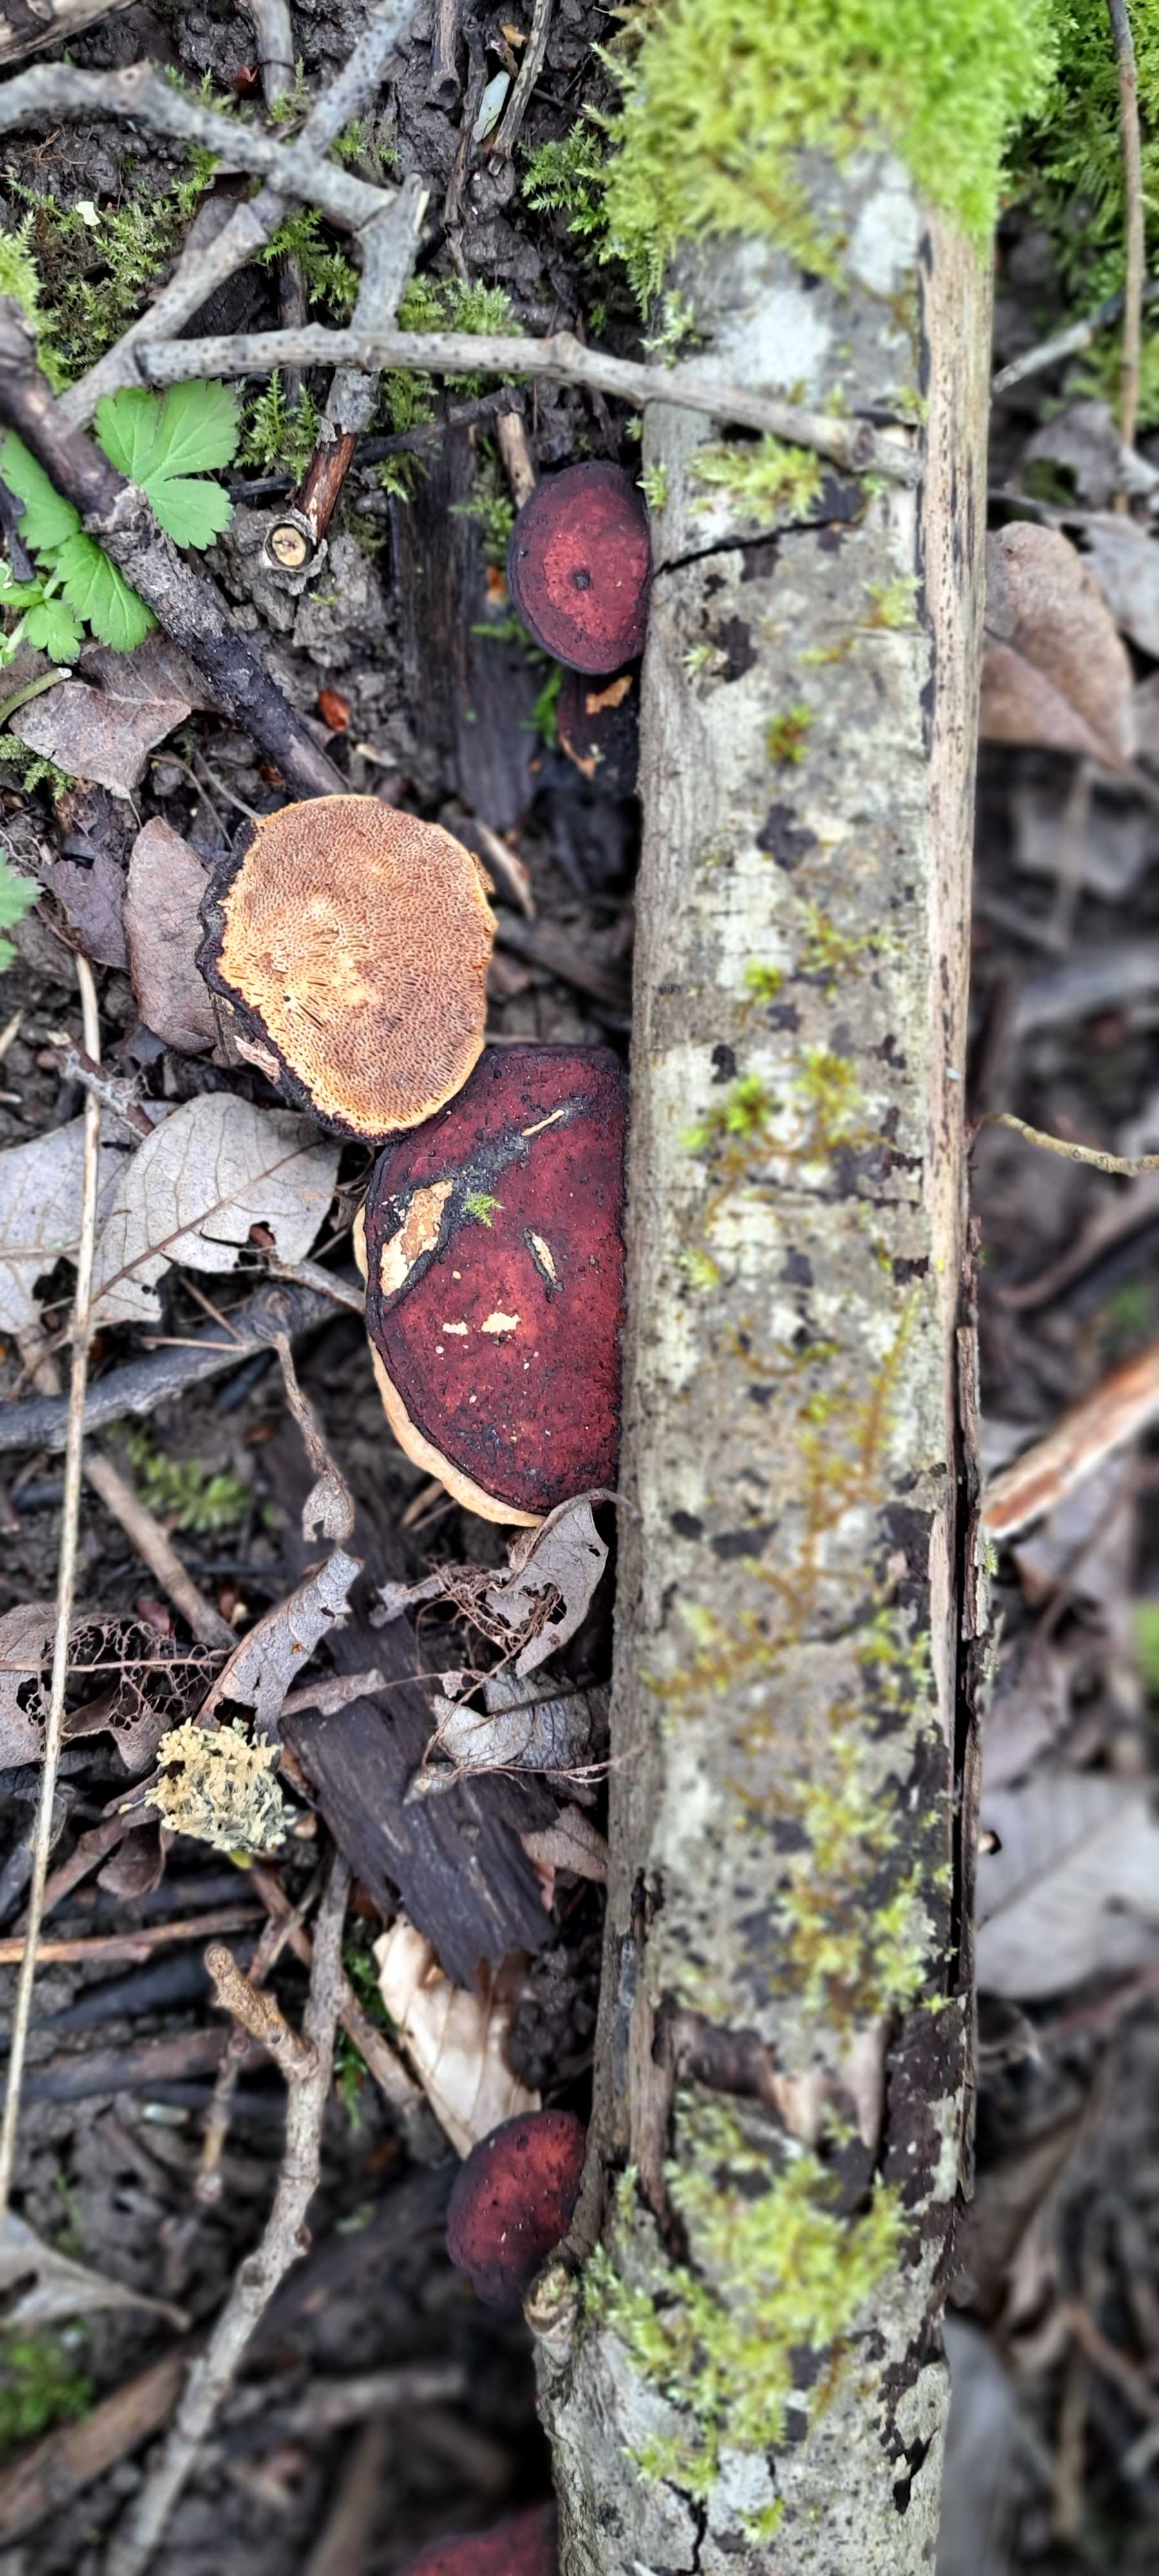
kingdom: Fungi
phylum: Basidiomycota
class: Agaricomycetes
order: Polyporales
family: Polyporaceae
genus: Daedaleopsis
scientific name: Daedaleopsis confragosa
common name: rødmende læderporesvamp
